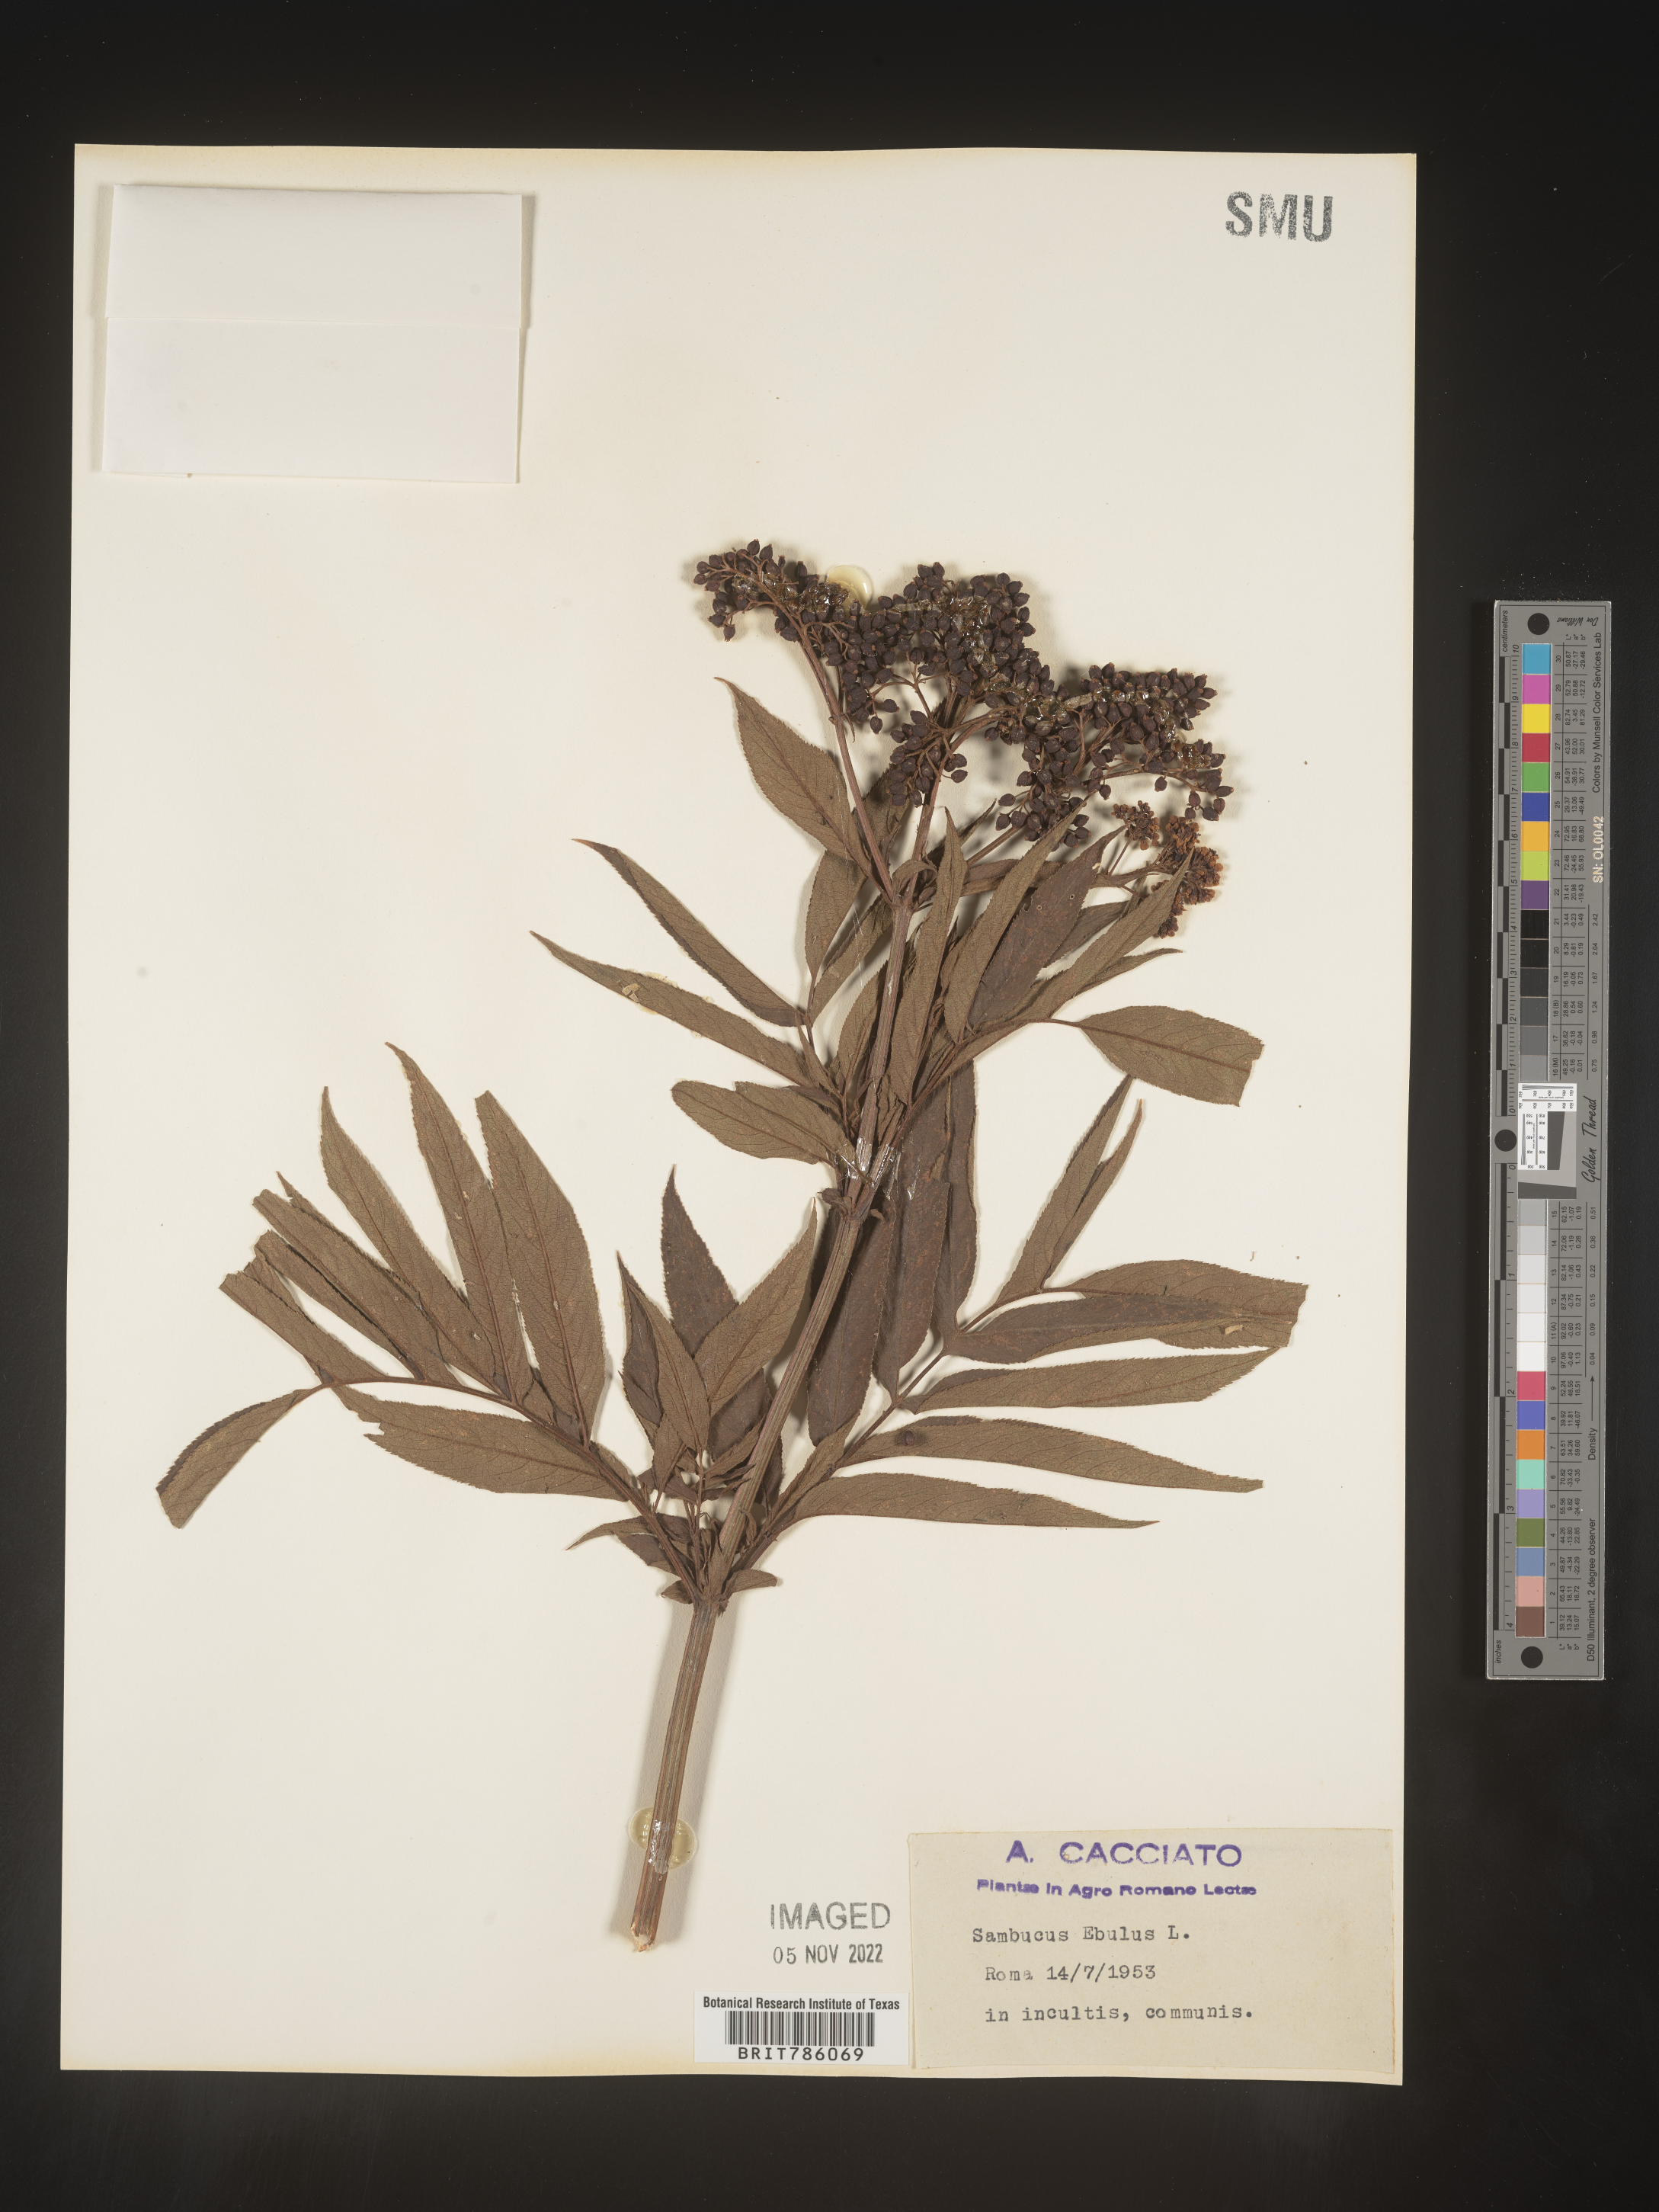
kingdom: Plantae
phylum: Tracheophyta
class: Magnoliopsida
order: Dipsacales
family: Viburnaceae
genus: Sambucus
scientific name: Sambucus
